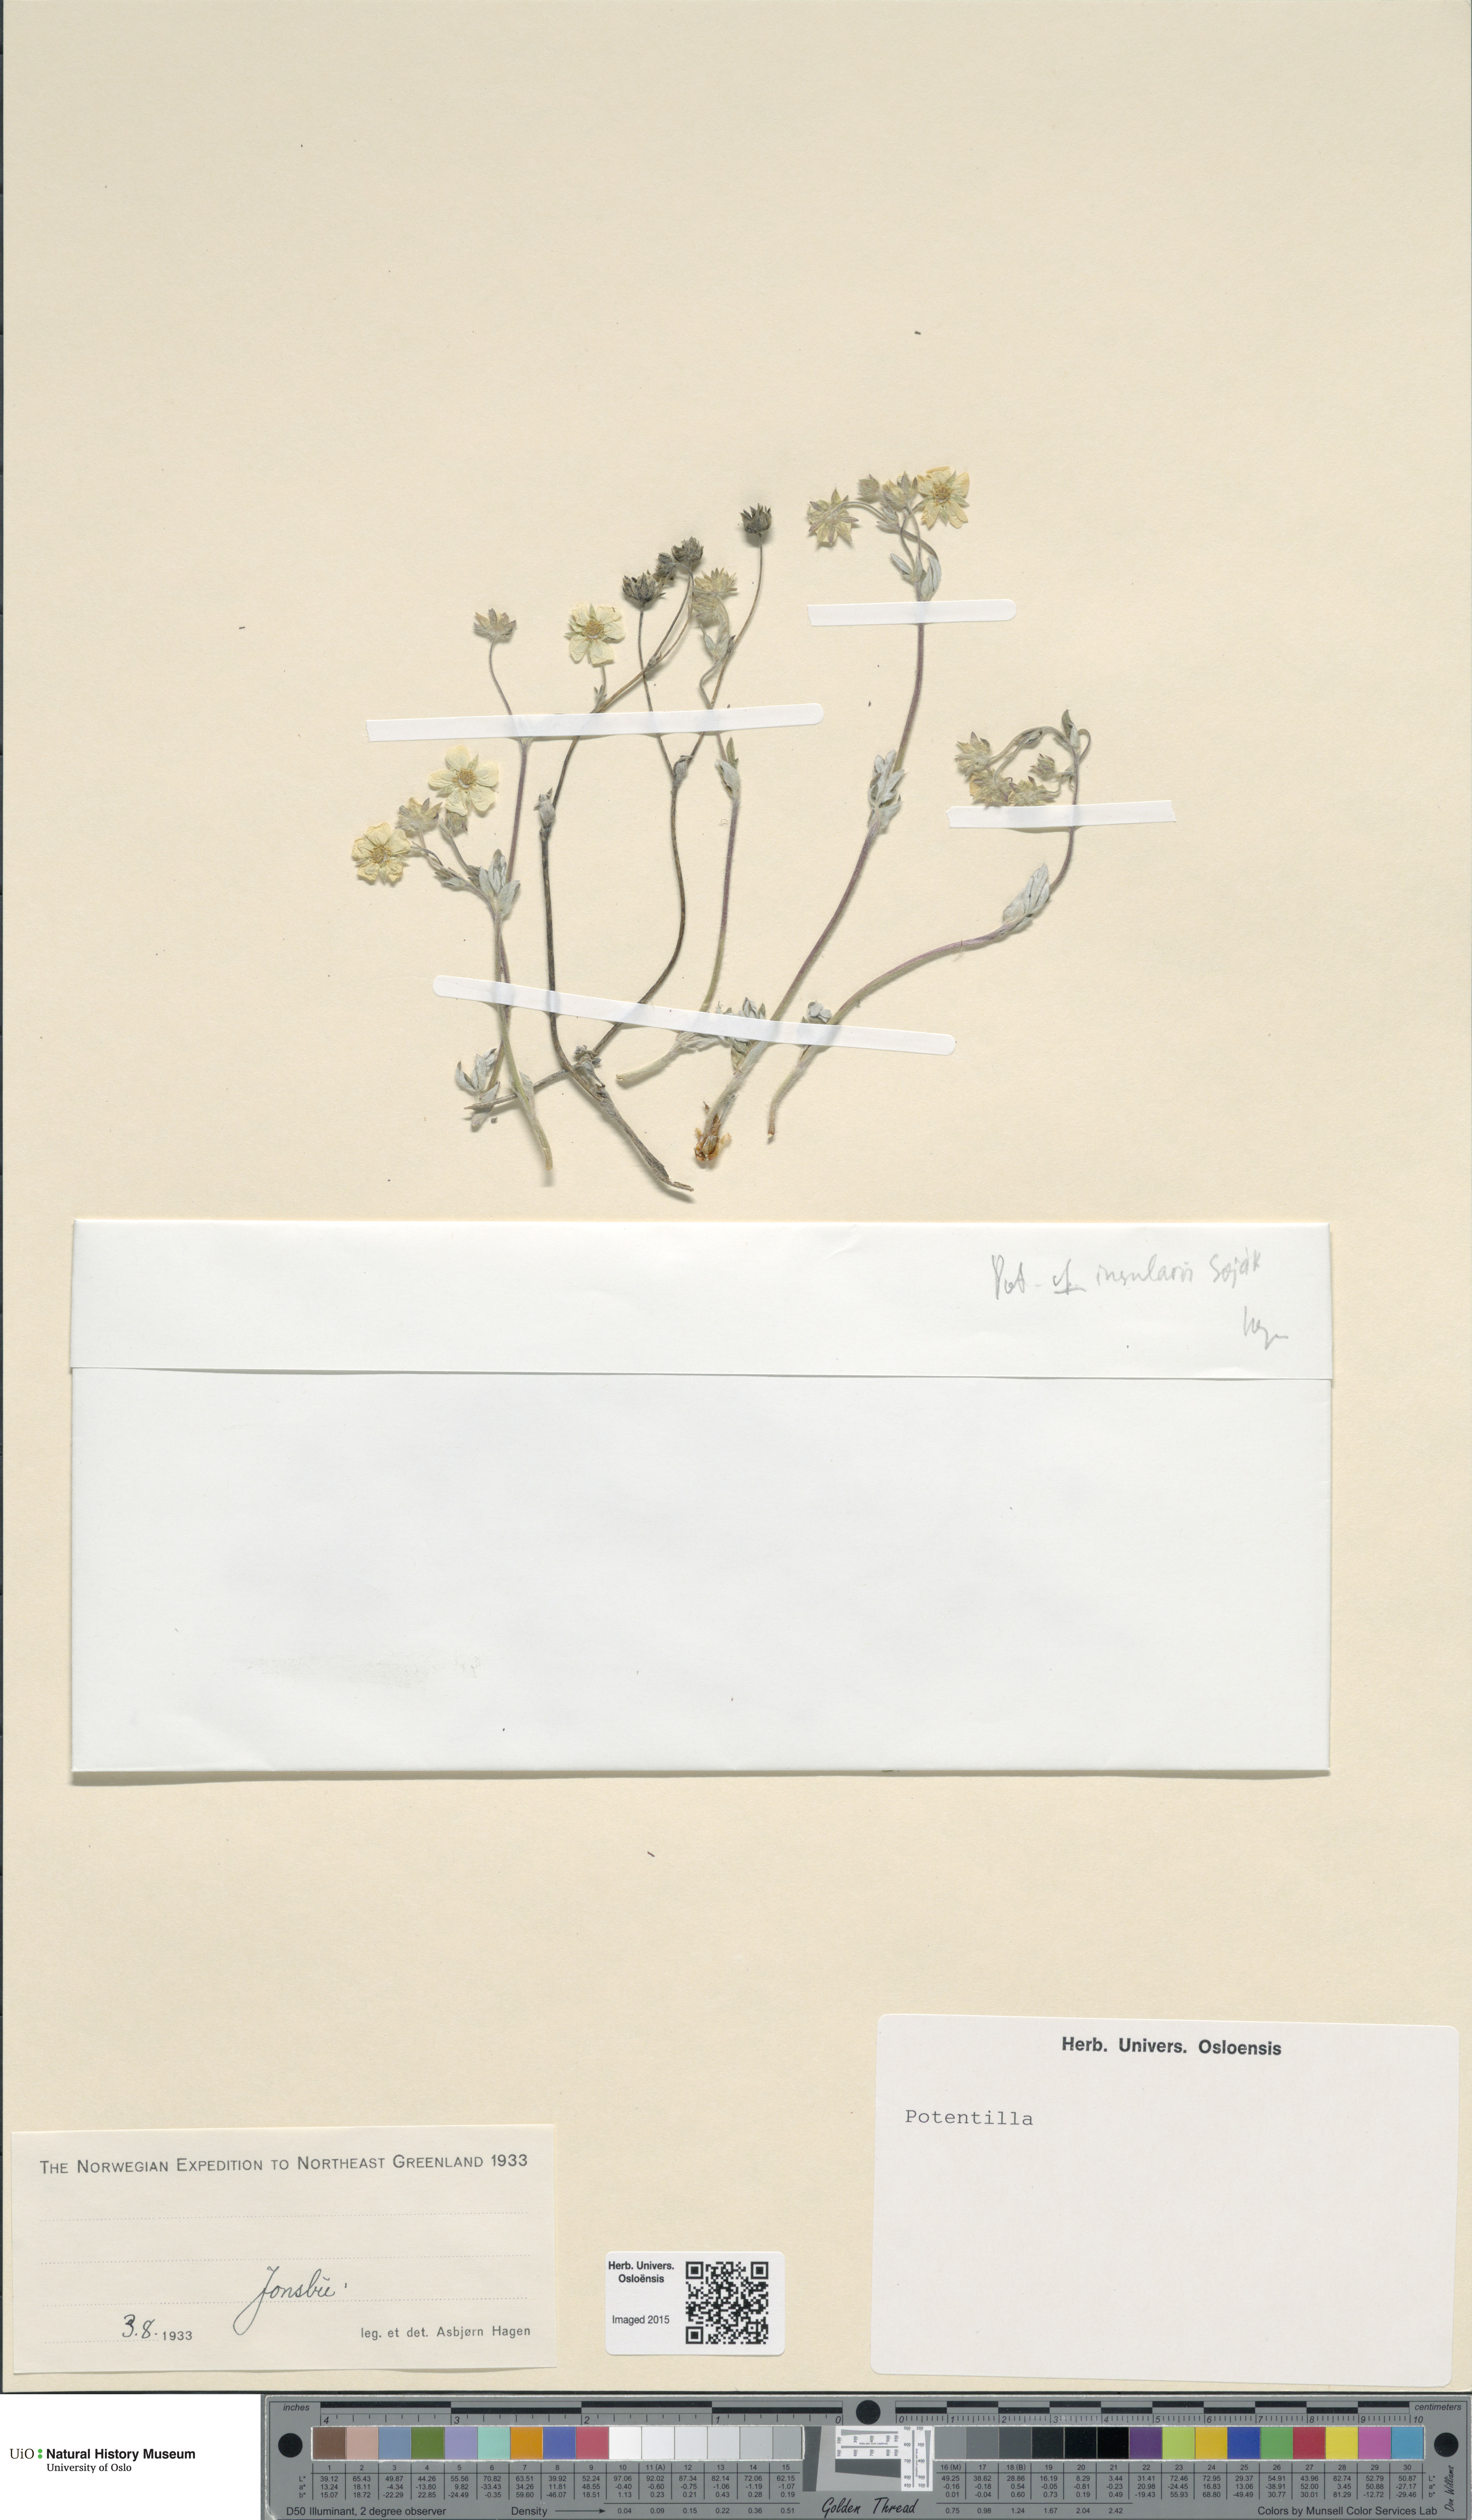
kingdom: Plantae
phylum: Tracheophyta
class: Magnoliopsida
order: Rosales
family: Rosaceae
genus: Potentilla
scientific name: Potentilla insularis
